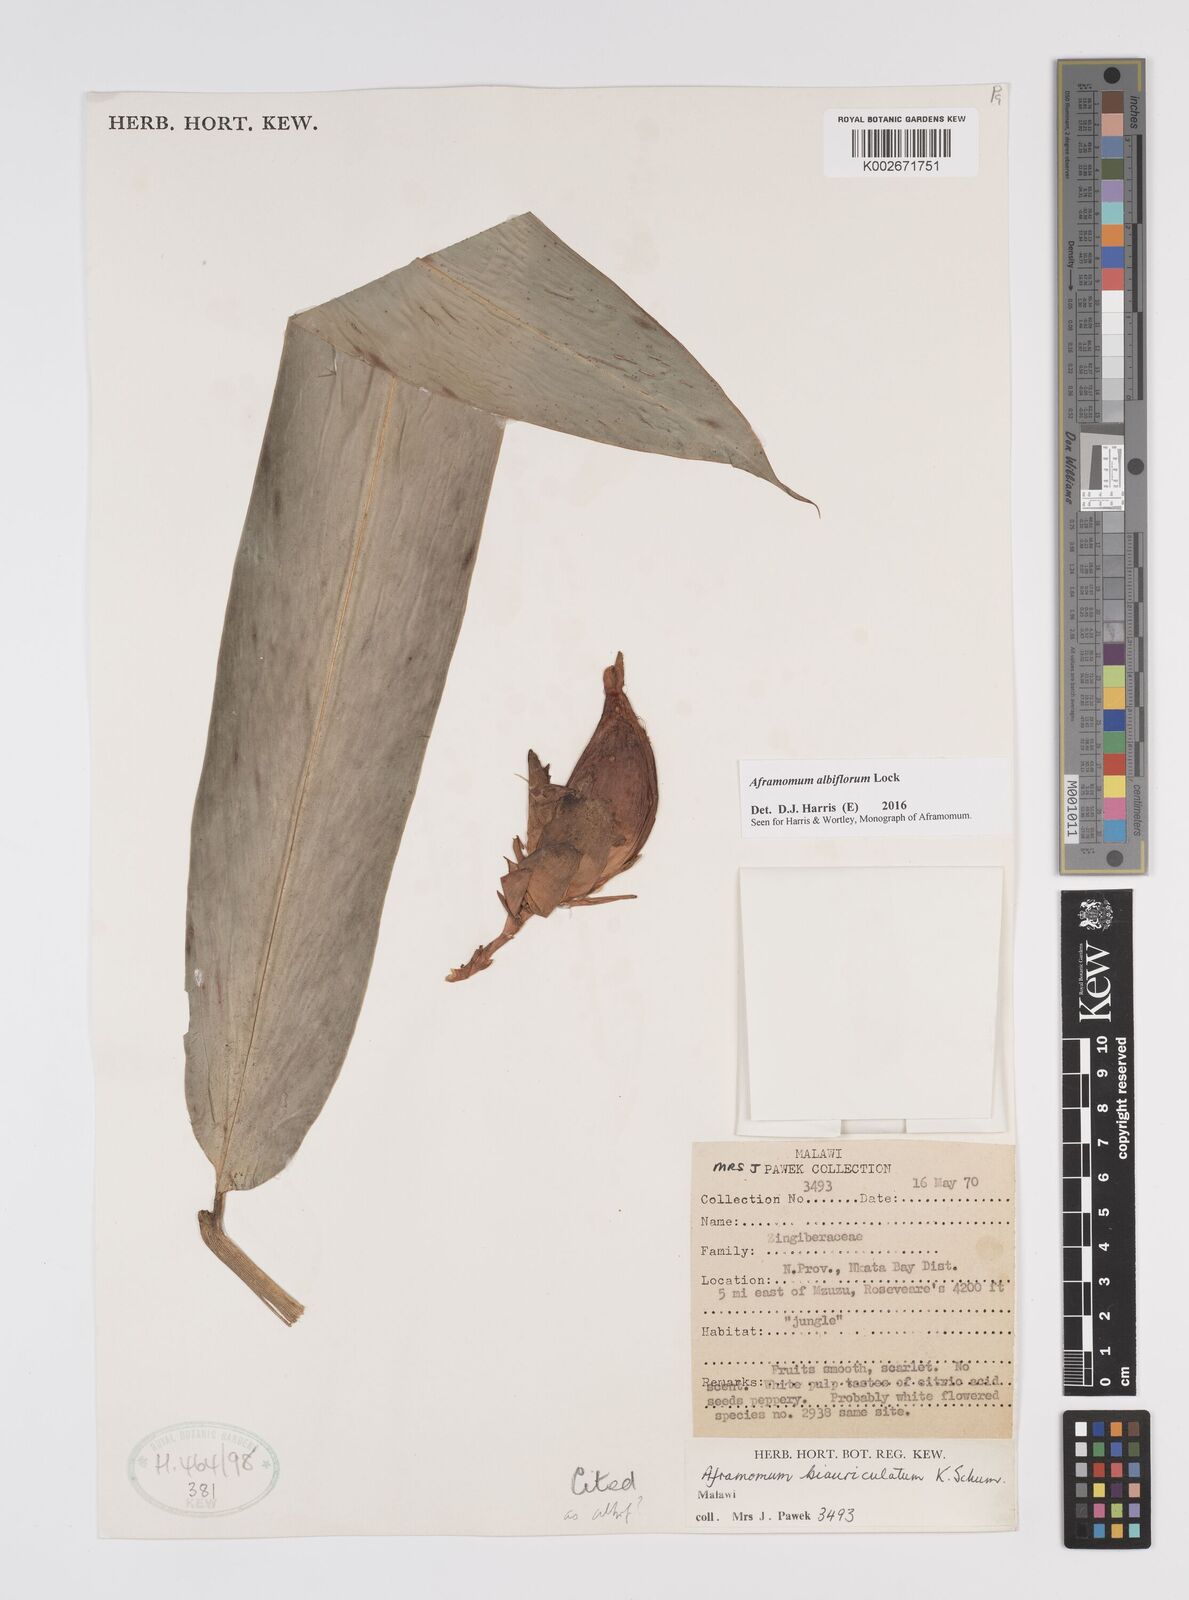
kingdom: Plantae
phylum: Tracheophyta
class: Liliopsida
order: Zingiberales
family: Zingiberaceae
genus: Aframomum
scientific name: Aframomum albiflorum
